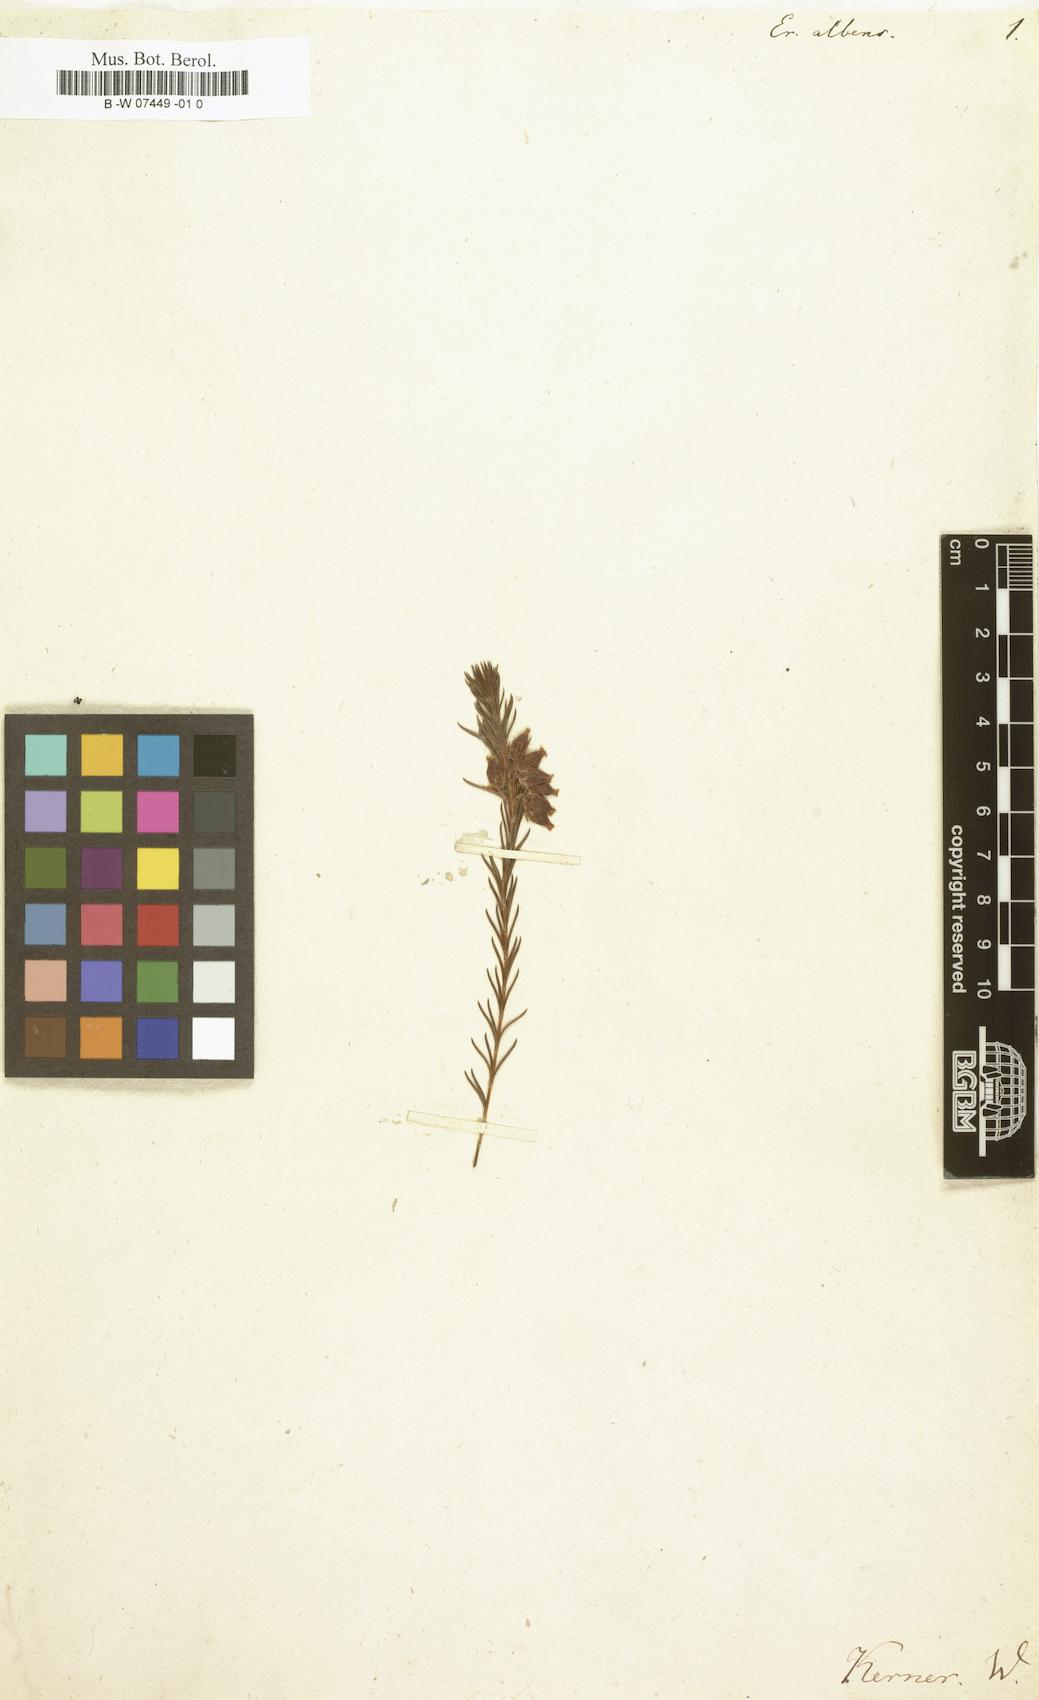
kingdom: Plantae
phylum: Tracheophyta
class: Magnoliopsida
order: Ericales
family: Ericaceae
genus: Erica
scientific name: Erica albens
